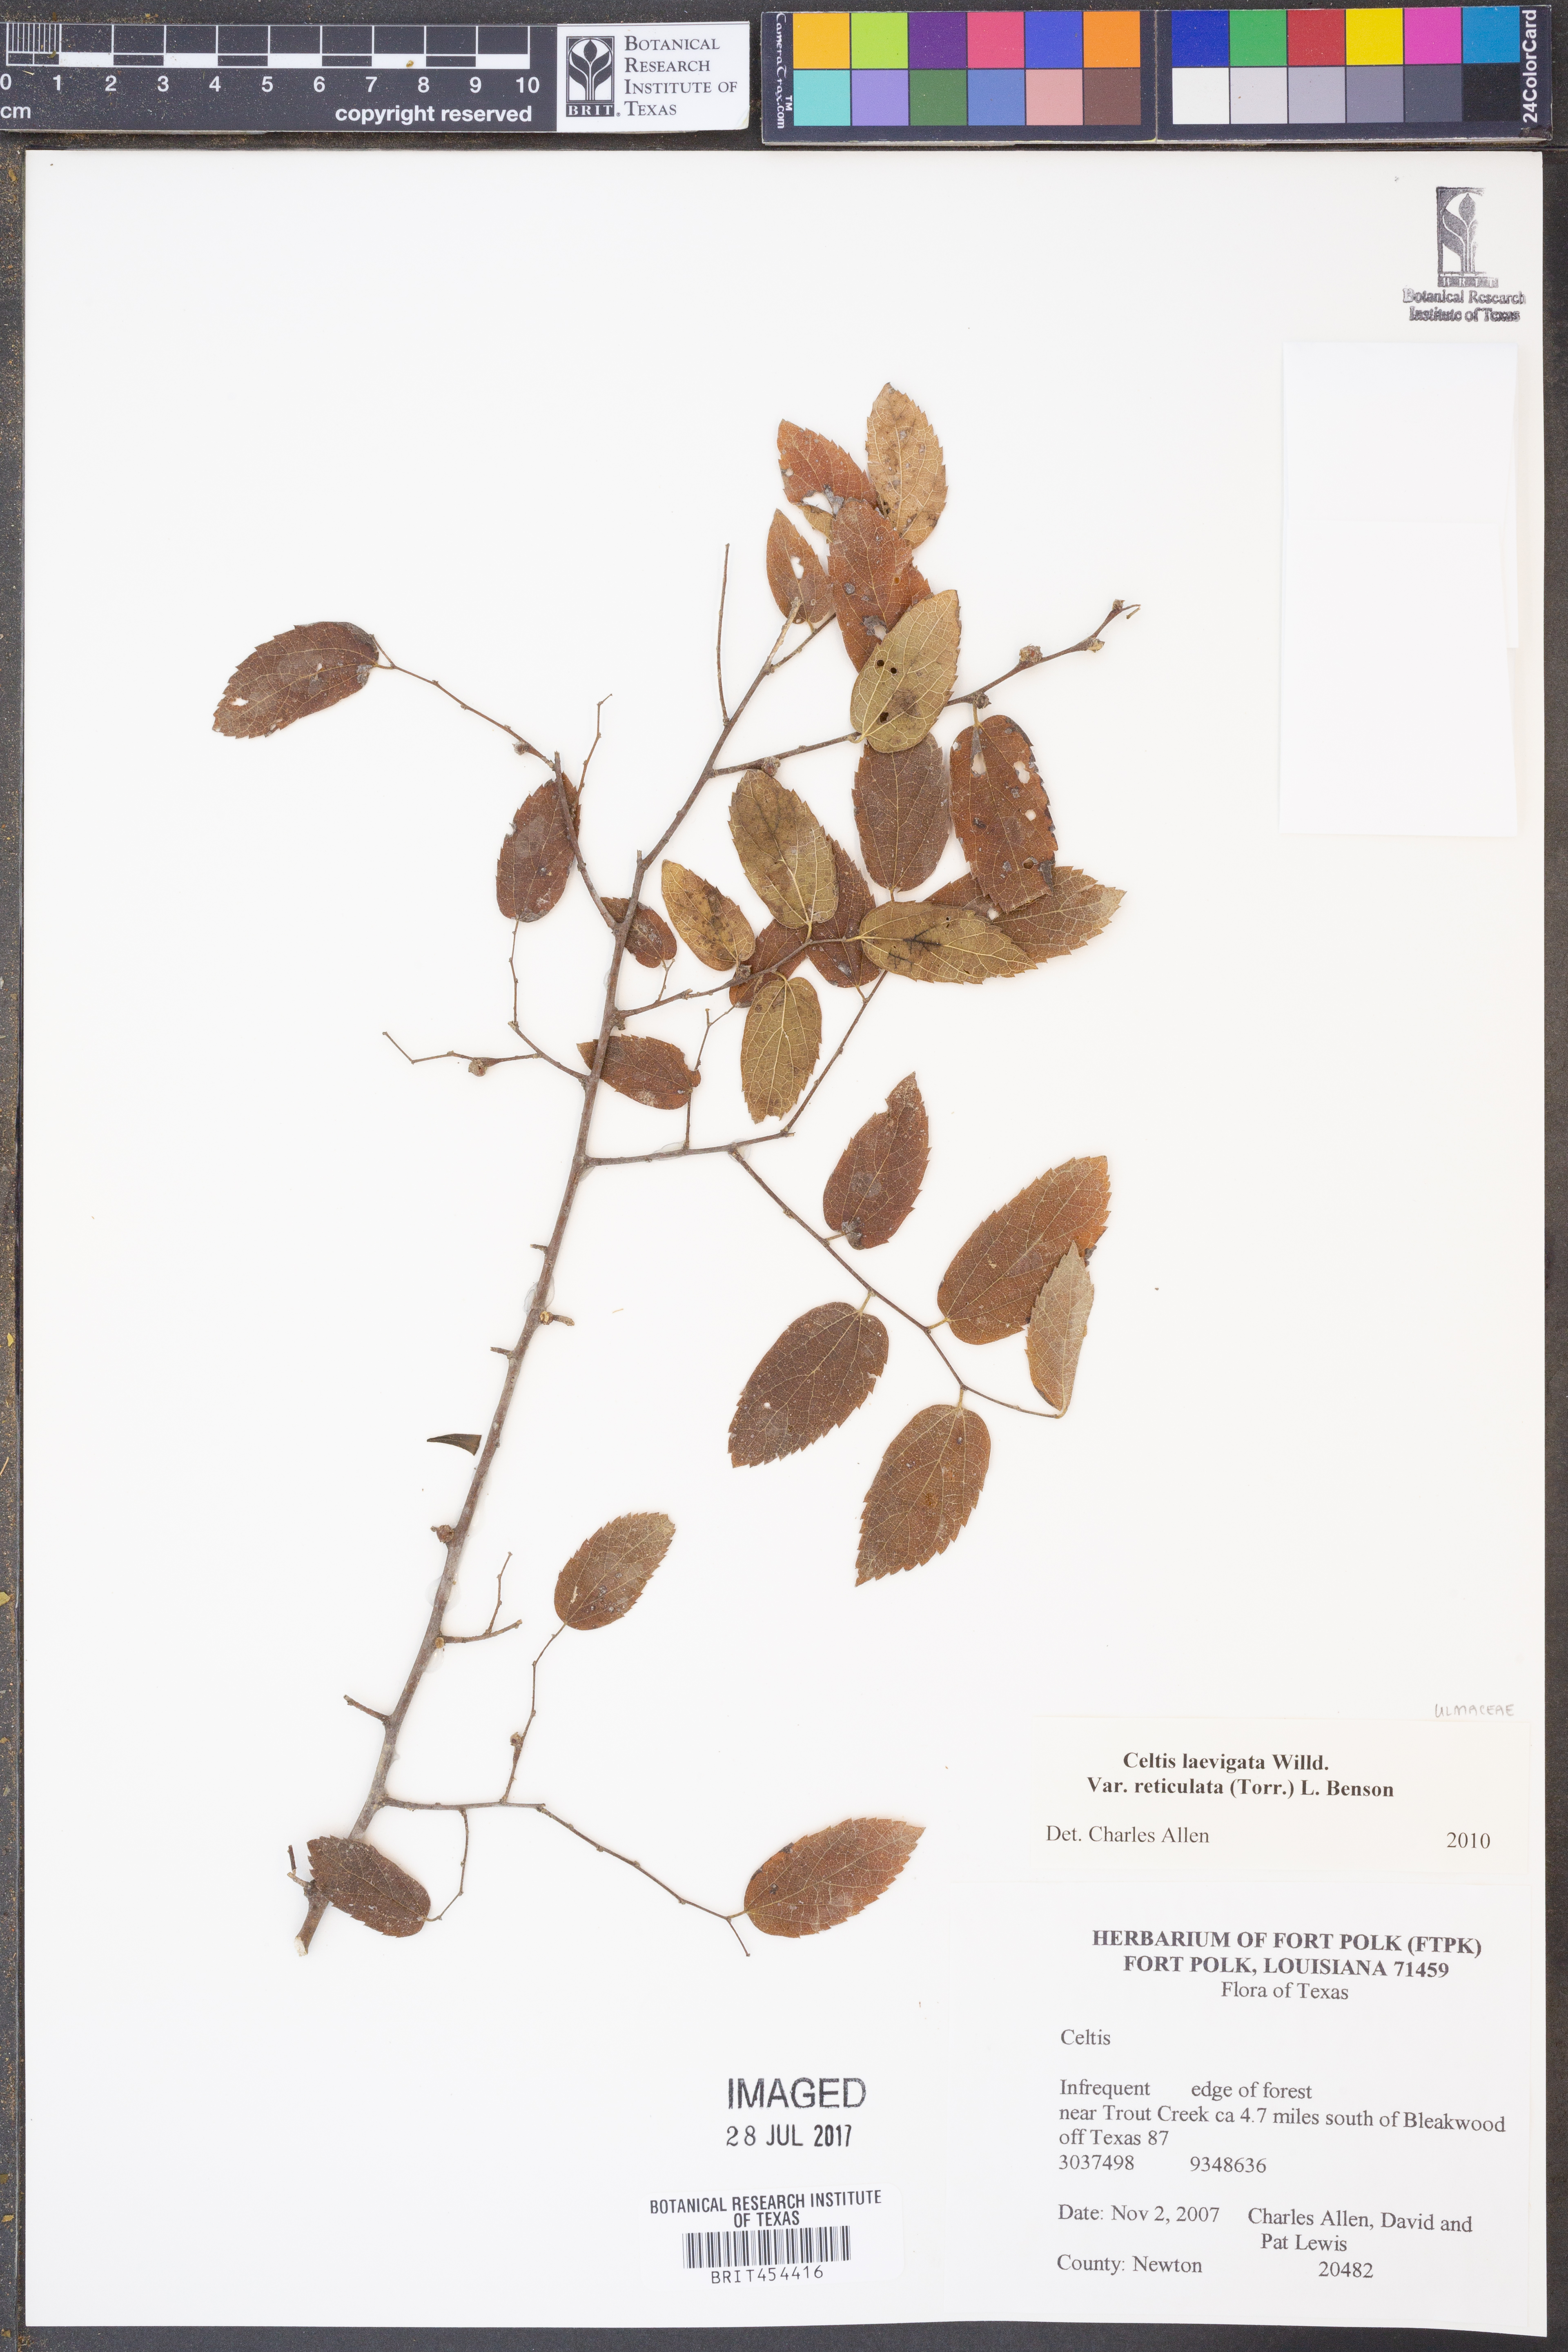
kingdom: Plantae
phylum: Tracheophyta
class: Magnoliopsida
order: Rosales
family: Cannabaceae
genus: Celtis
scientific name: Celtis reticulata
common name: Netleaf hackberry
